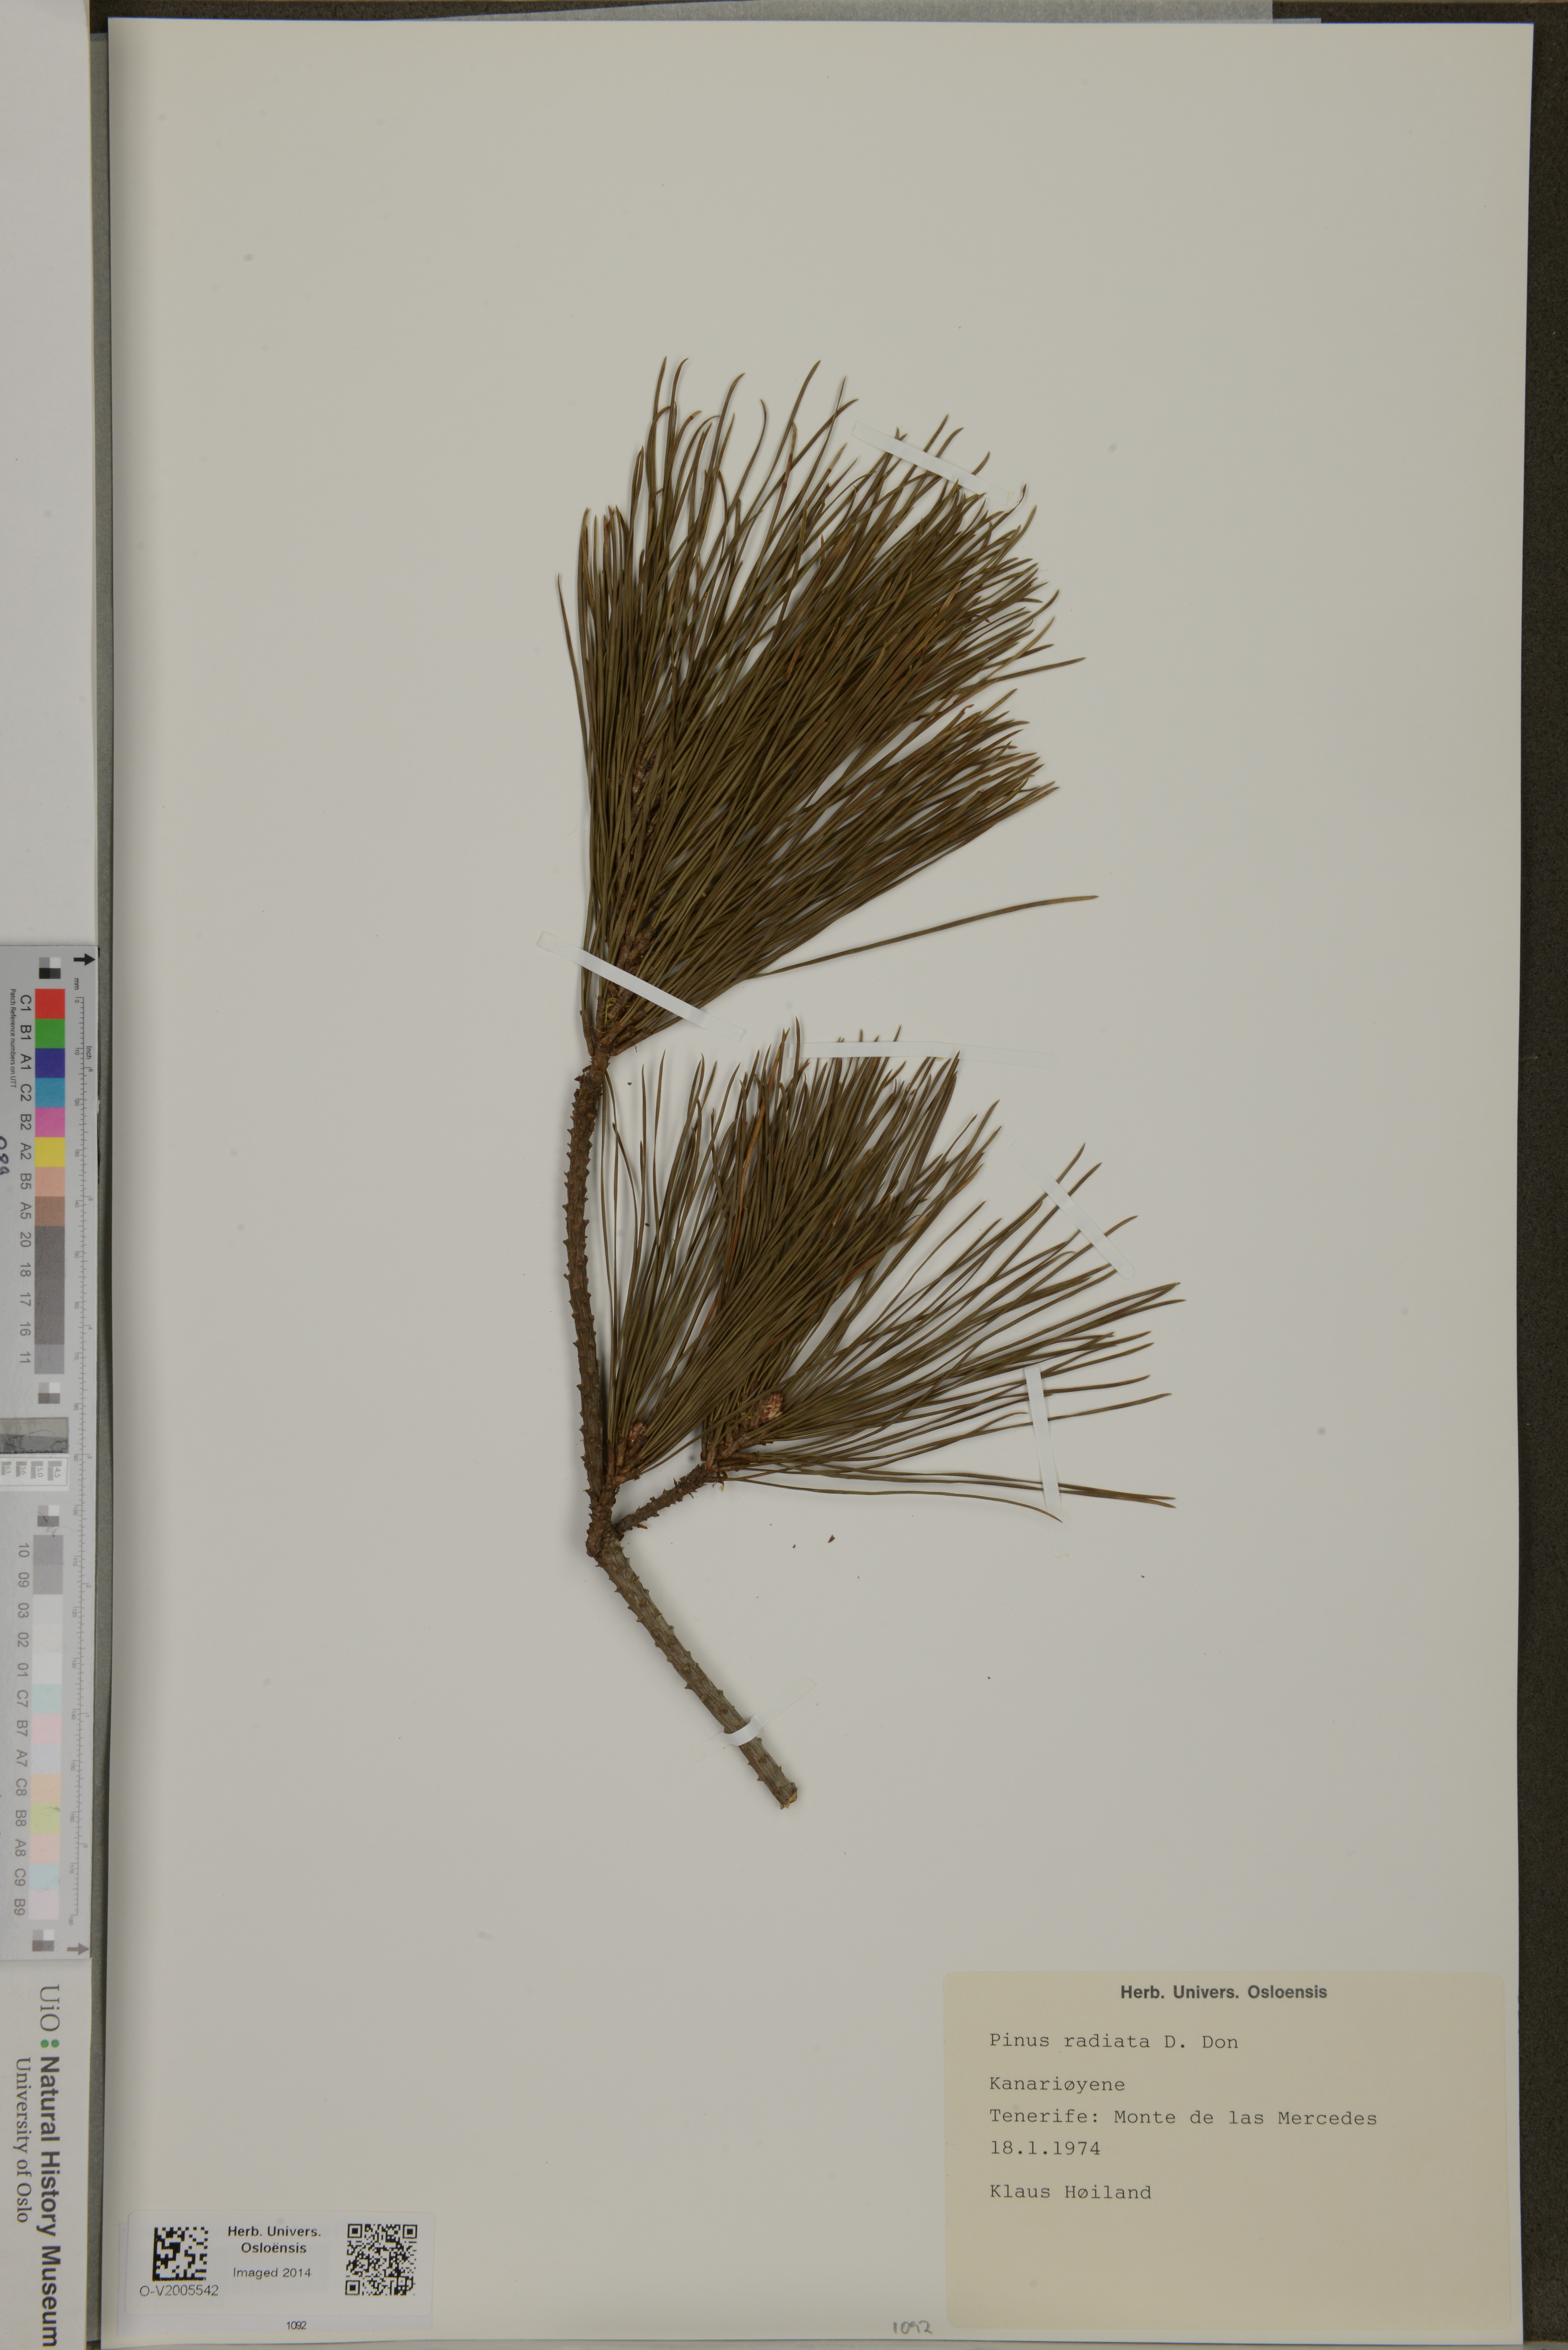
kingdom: Plantae
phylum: Tracheophyta
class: Pinopsida
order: Pinales
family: Pinaceae
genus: Pinus
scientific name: Pinus radiata
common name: Monterey pine
